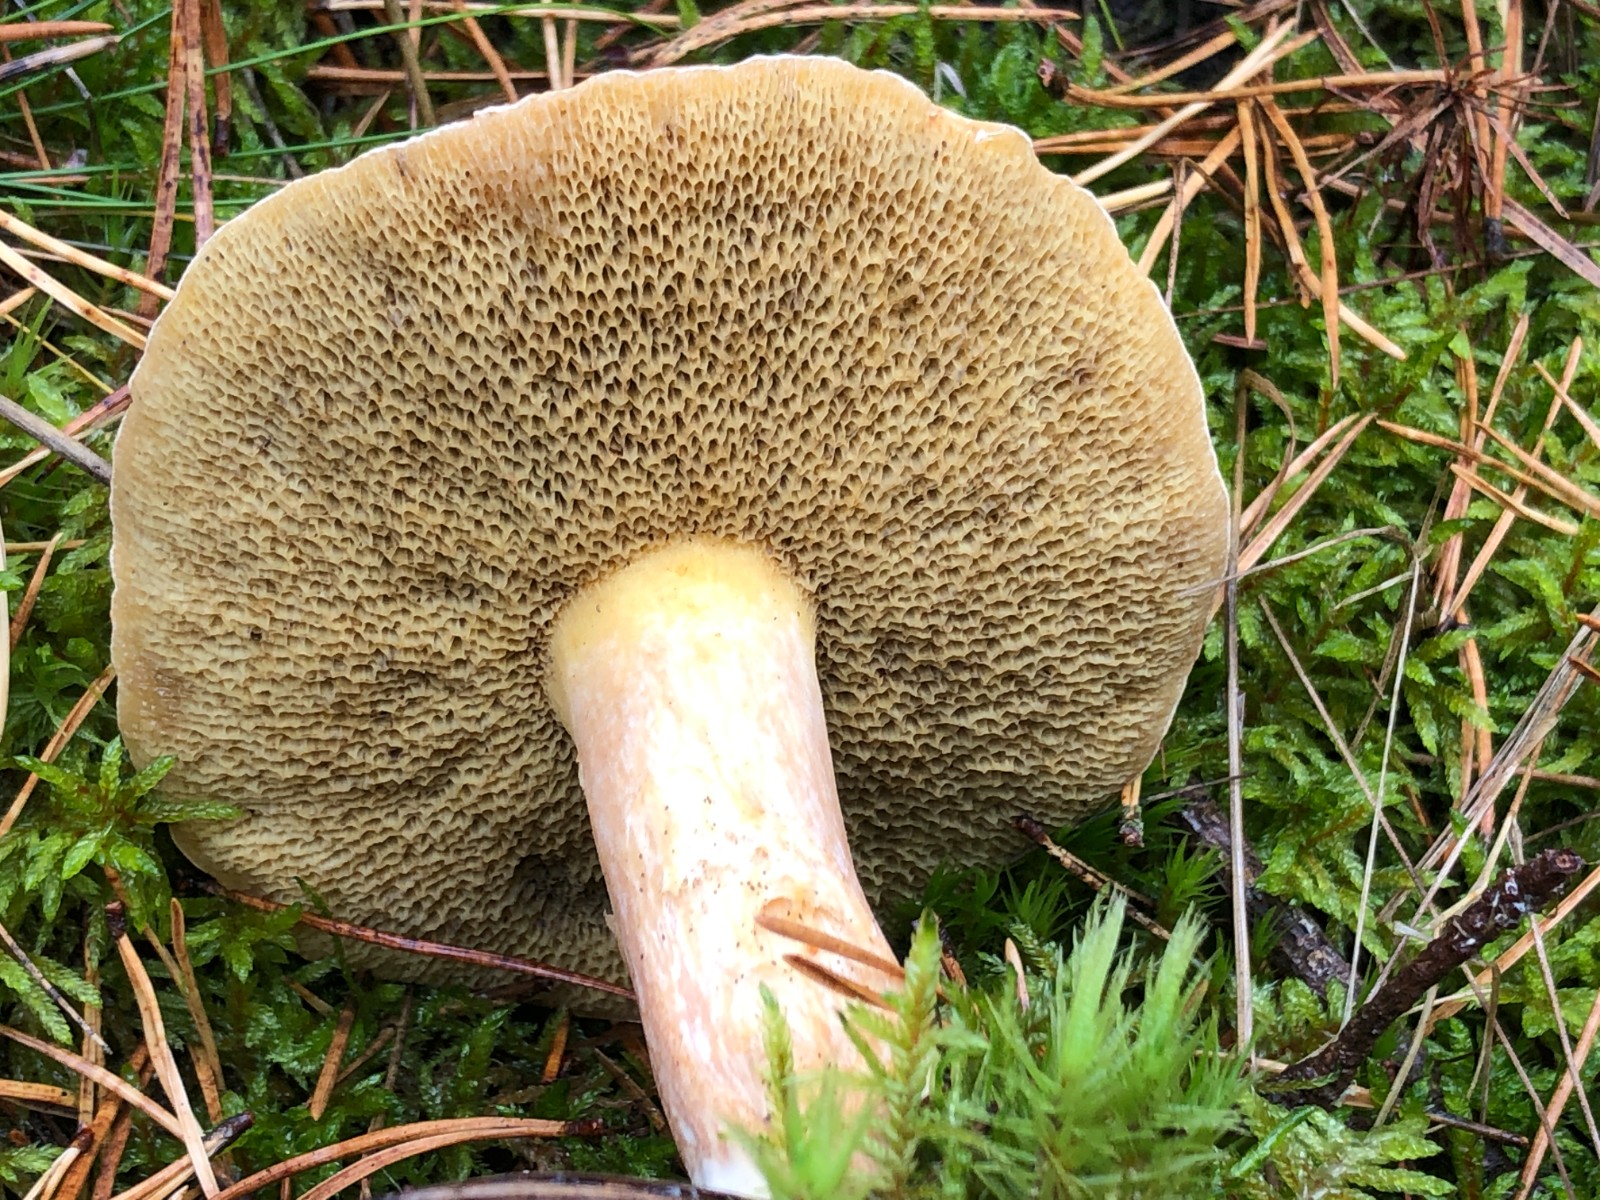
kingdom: Fungi
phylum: Basidiomycota
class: Agaricomycetes
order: Boletales
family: Suillaceae
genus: Suillus
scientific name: Suillus bovinus
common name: grovporet slimrørhat
